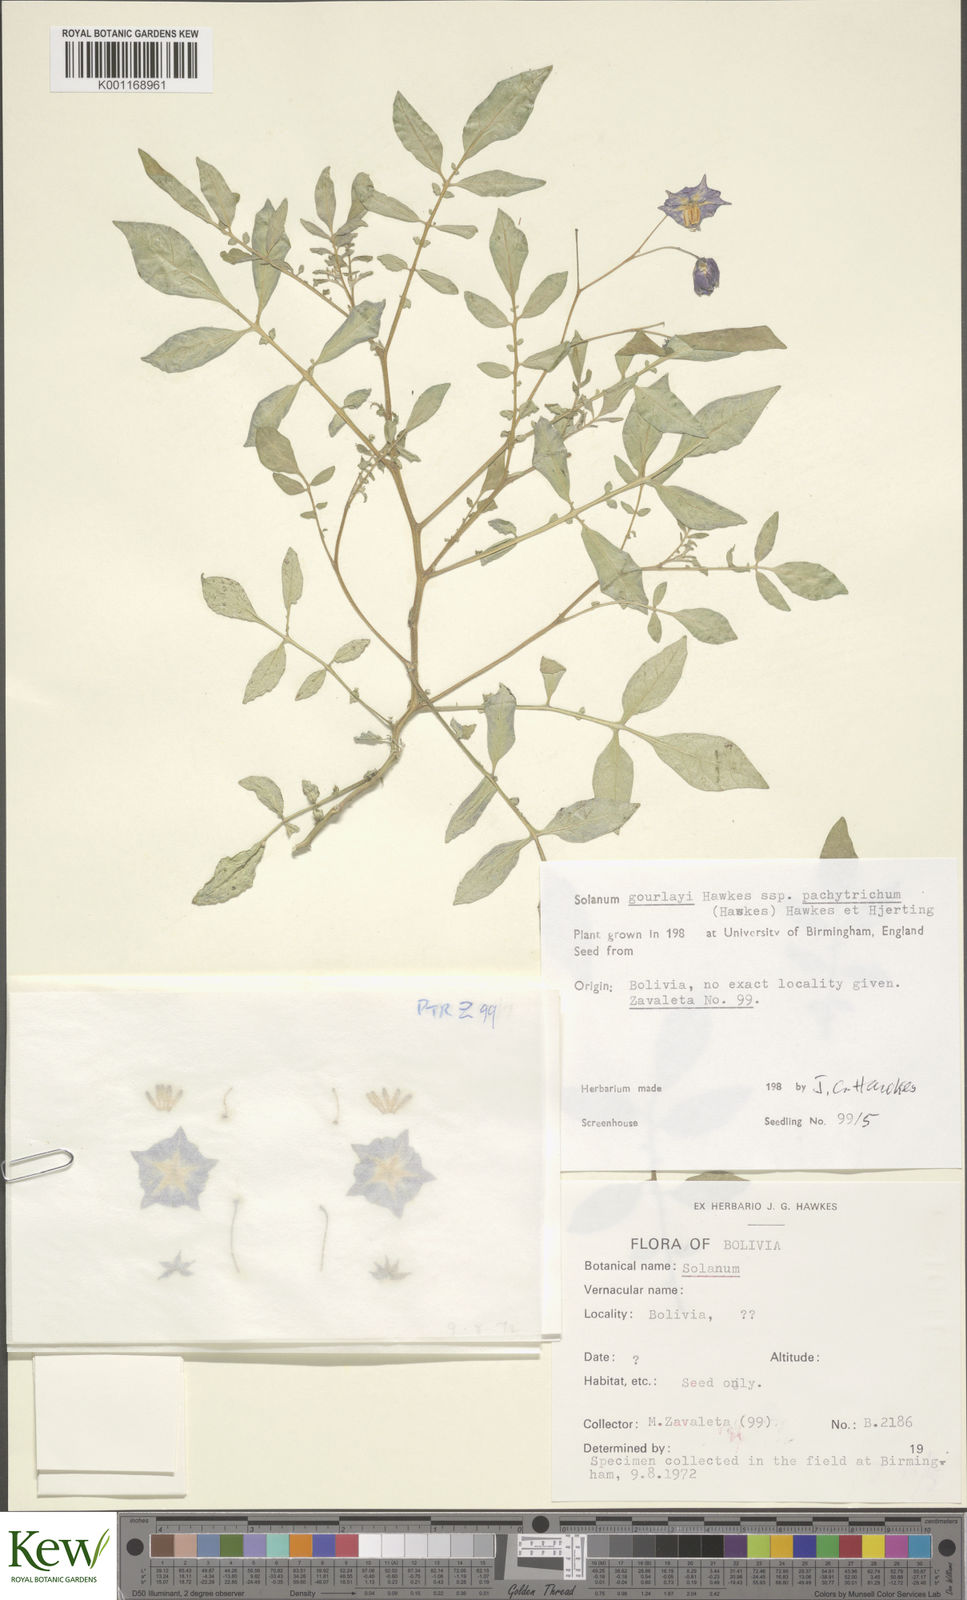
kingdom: Plantae
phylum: Tracheophyta
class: Magnoliopsida
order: Solanales
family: Solanaceae
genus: Solanum
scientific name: Solanum brevicaule
